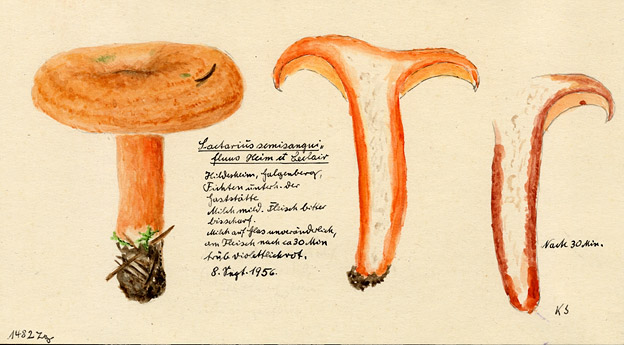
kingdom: Fungi
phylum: Basidiomycota
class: Agaricomycetes
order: Russulales
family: Russulaceae
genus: Lactarius
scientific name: Lactarius semisanguifluus
